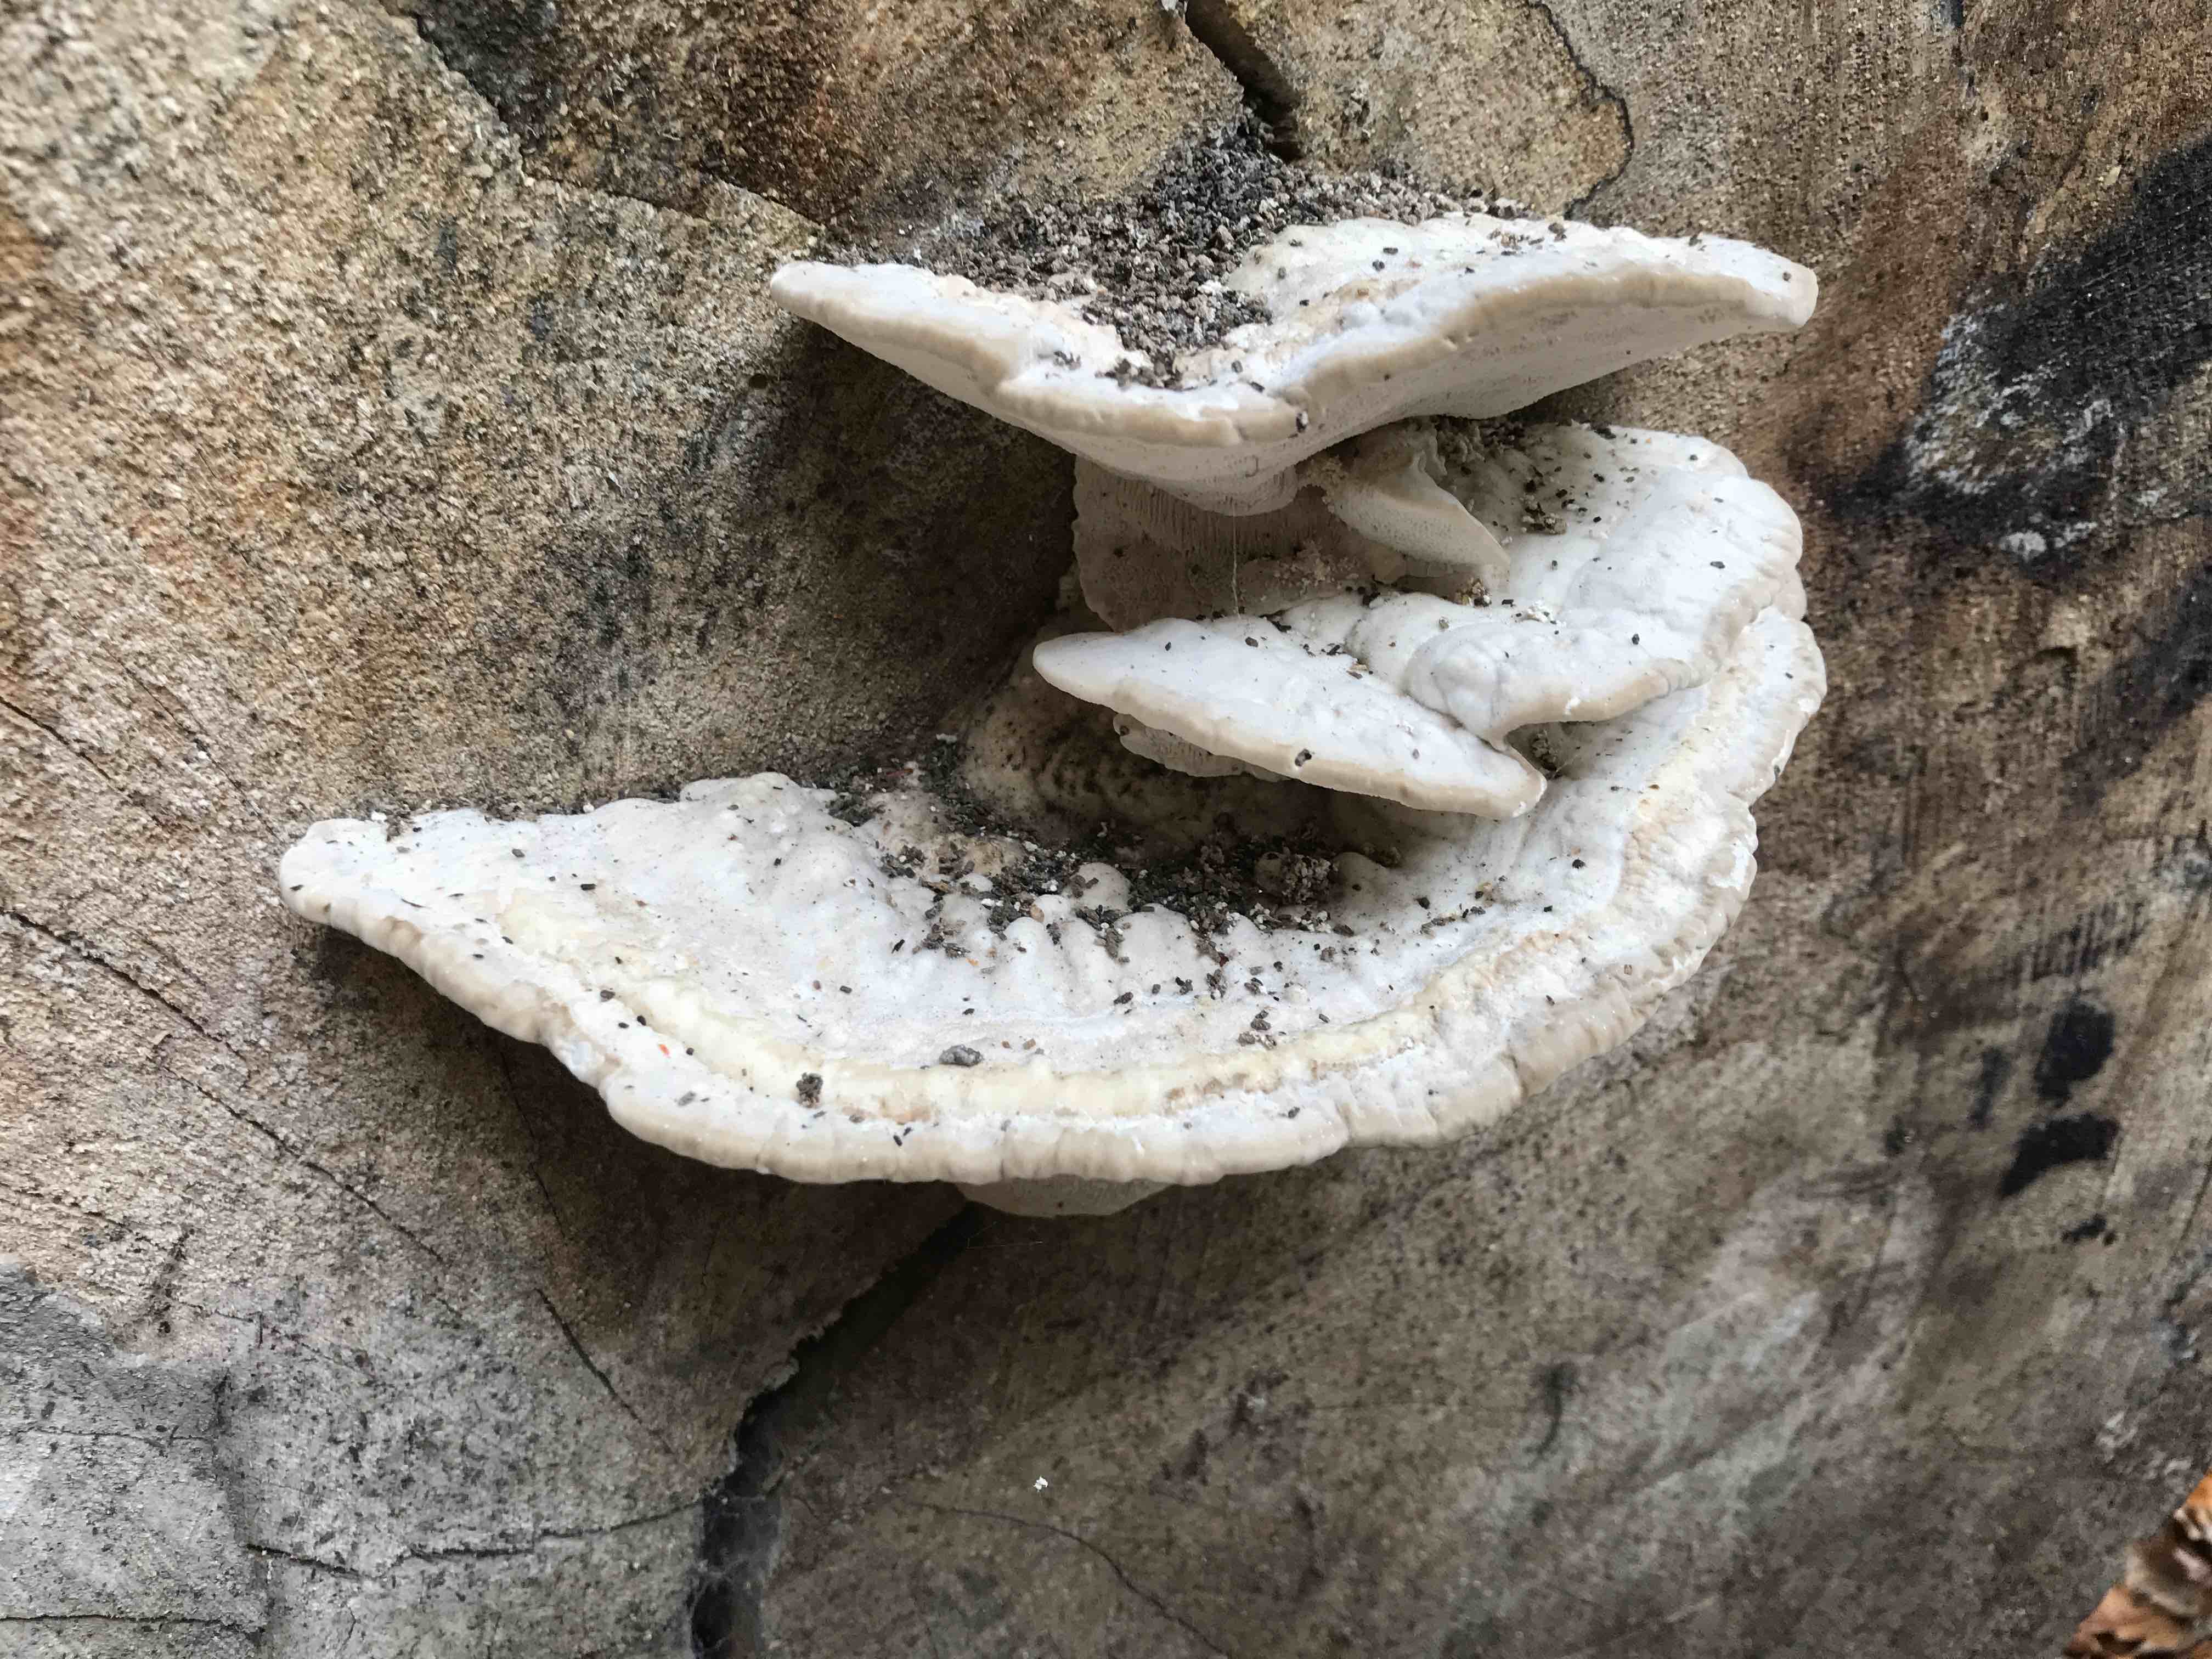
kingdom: Fungi
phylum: Basidiomycota
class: Agaricomycetes
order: Polyporales
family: Polyporaceae
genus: Trametes
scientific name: Trametes gibbosa
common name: puklet læderporesvamp
